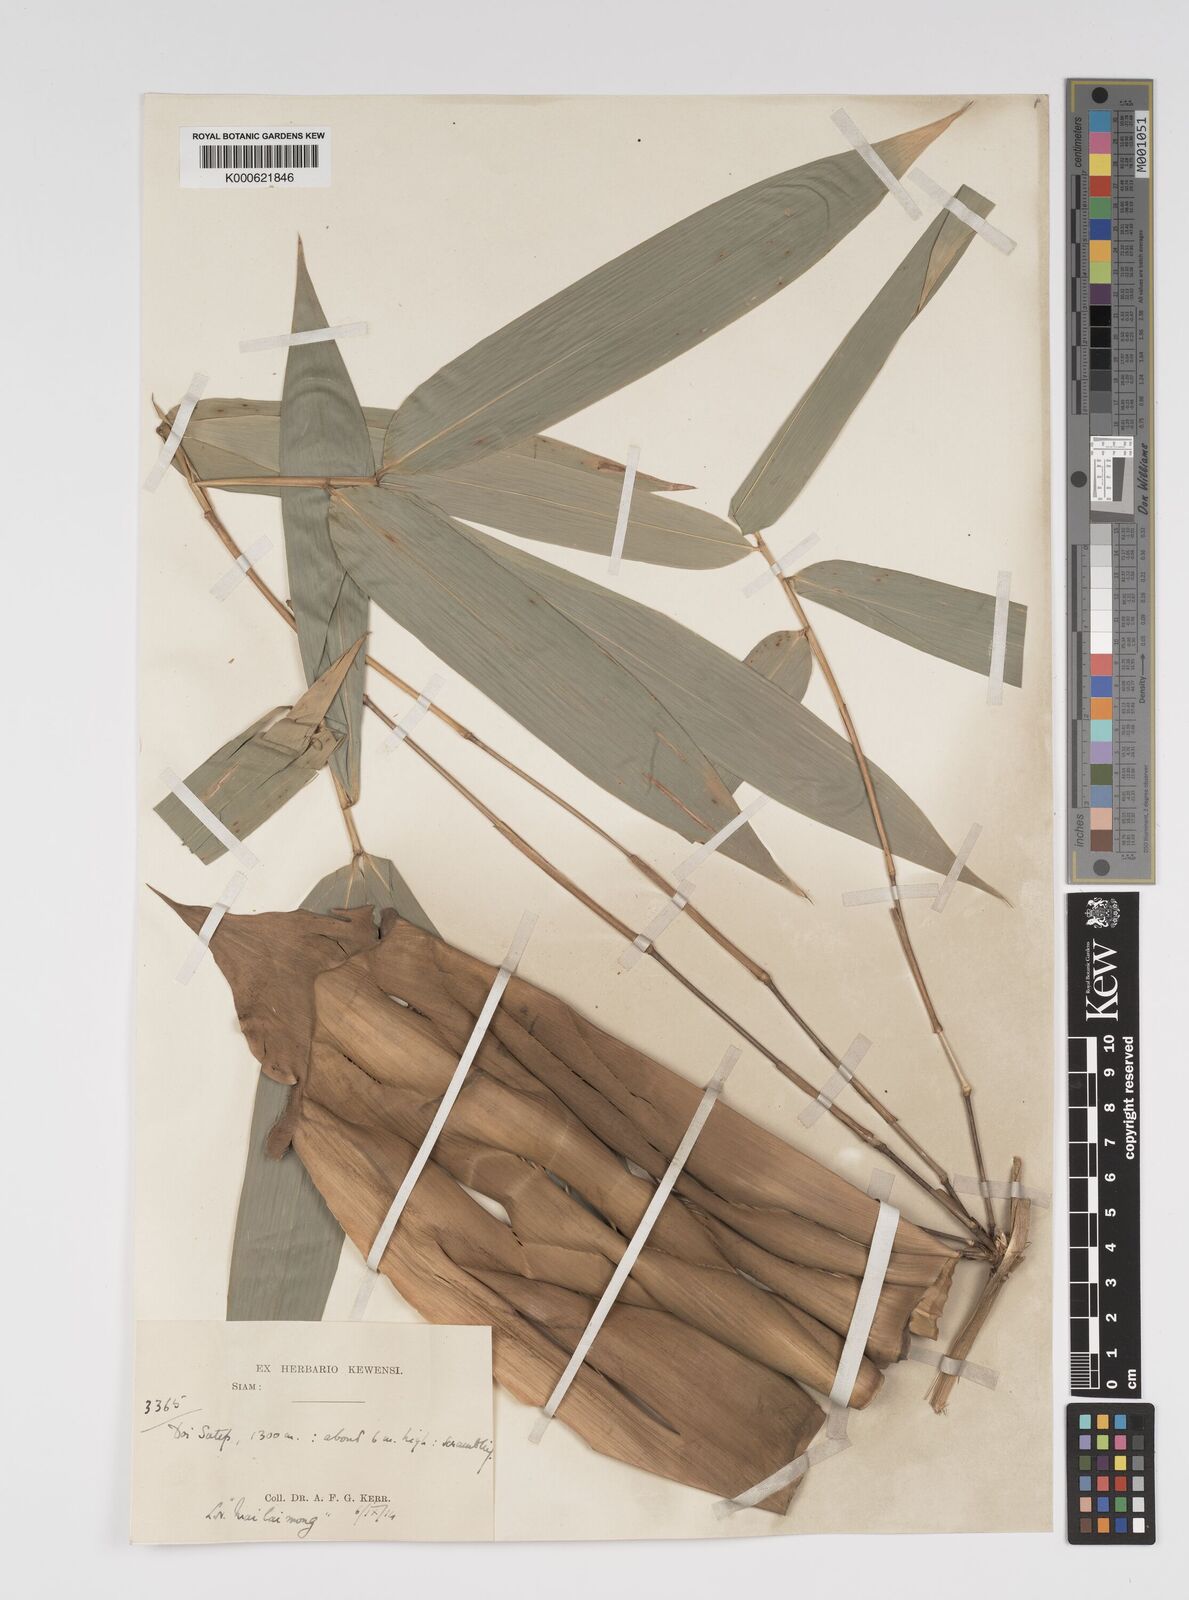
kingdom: Plantae
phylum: Tracheophyta
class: Liliopsida
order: Poales
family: Poaceae
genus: Bambusa
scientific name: Bambusa sesquiflora
